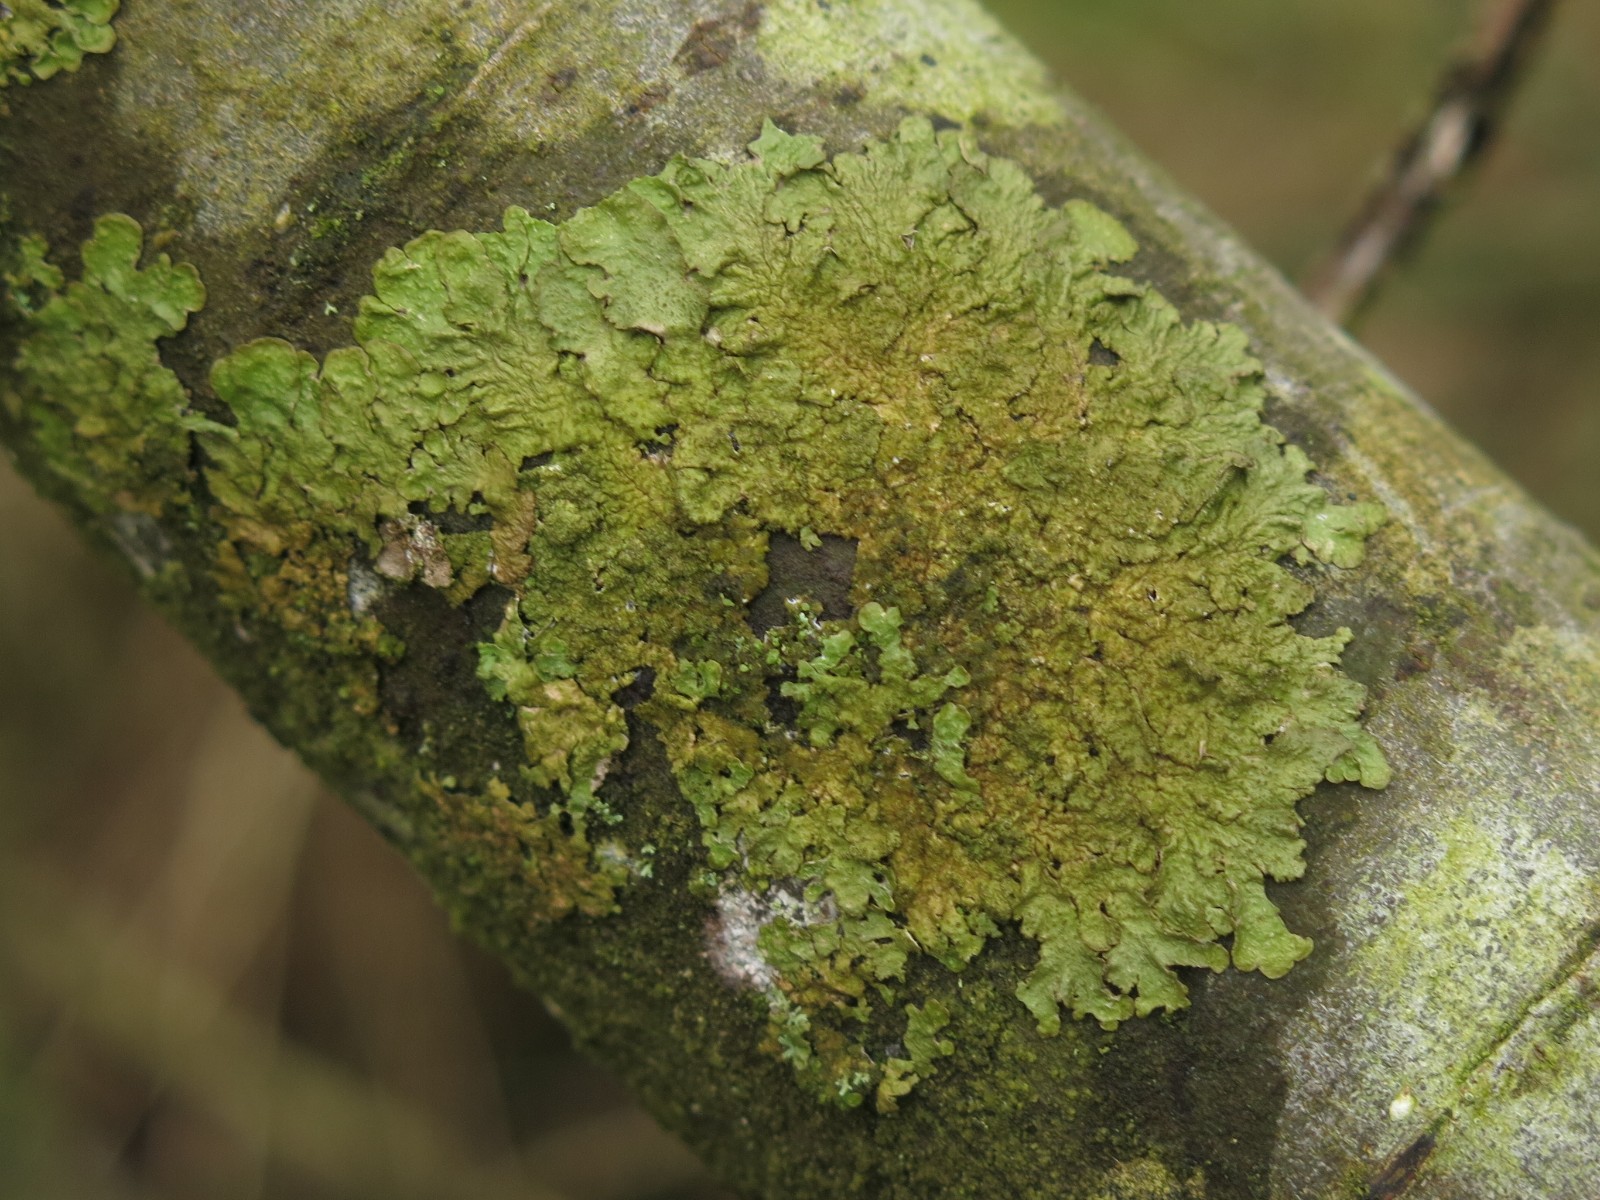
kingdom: Fungi
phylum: Ascomycota
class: Lecanoromycetes
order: Lecanorales
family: Parmeliaceae
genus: Melanelixia
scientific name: Melanelixia subaurifera
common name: guldpudret skållav
